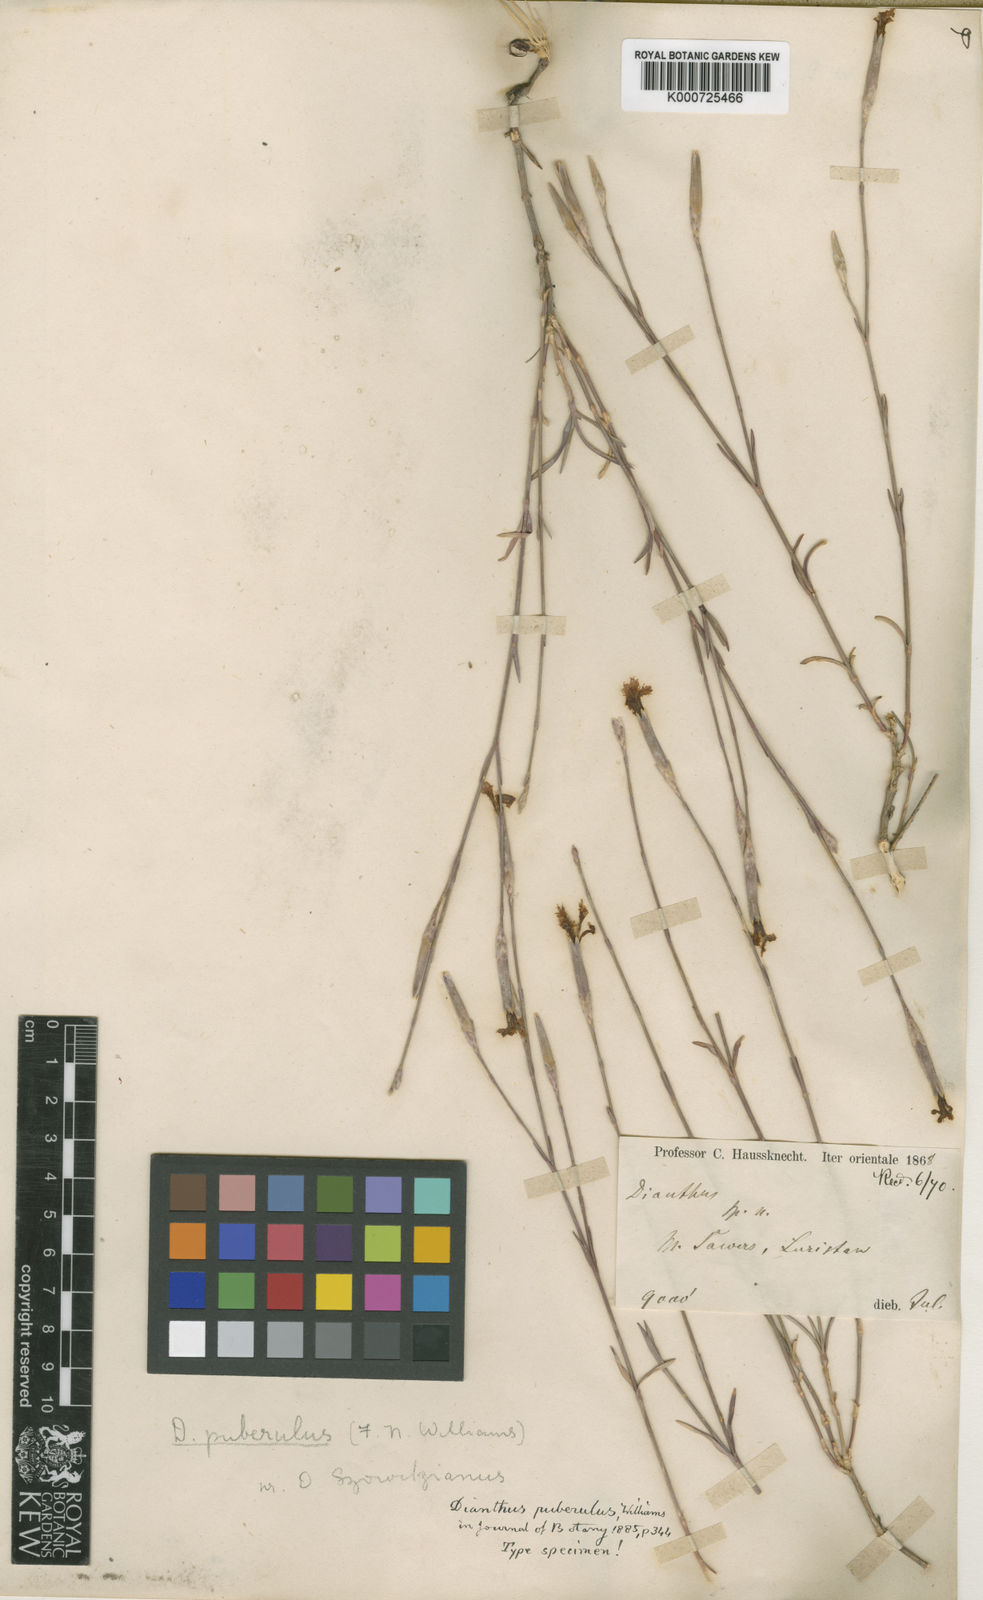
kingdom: Plantae
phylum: Tracheophyta
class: Magnoliopsida
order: Caryophyllales
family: Caryophyllaceae
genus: Dianthus
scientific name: Dianthus orientalis
